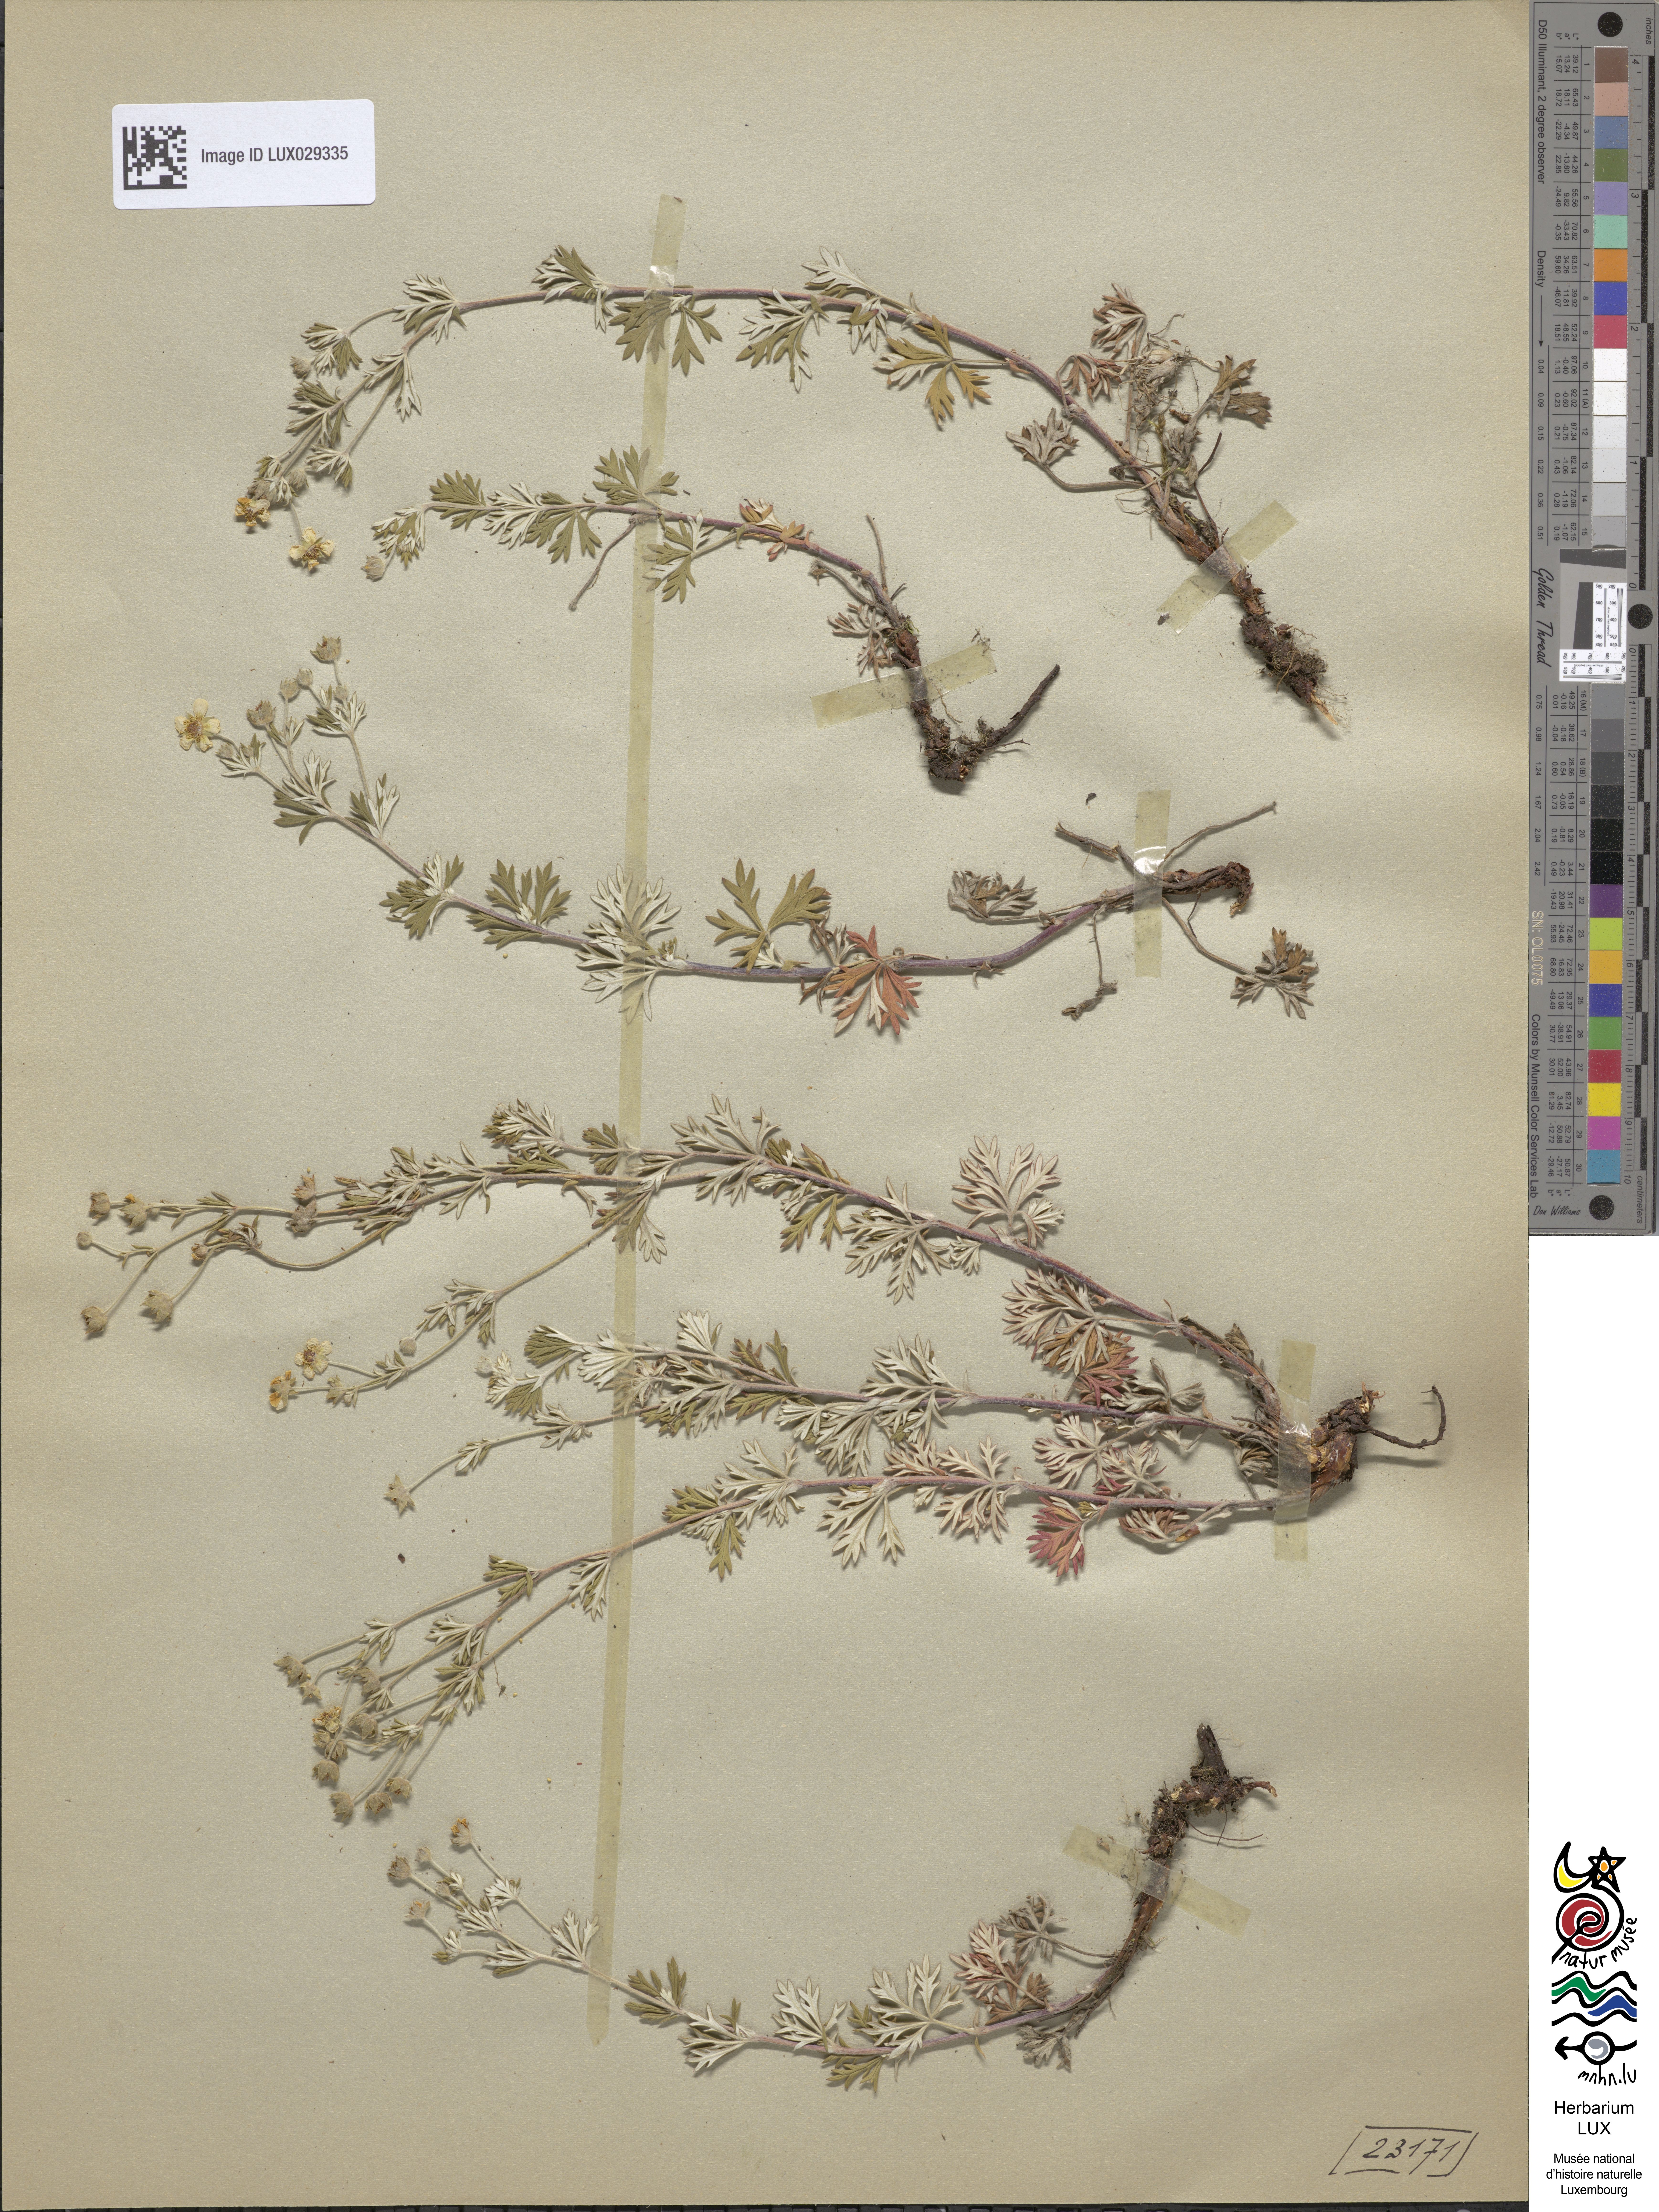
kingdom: Plantae
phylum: Tracheophyta
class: Magnoliopsida
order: Rosales
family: Rosaceae
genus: Potentilla
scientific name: Potentilla argentea
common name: Hoary cinquefoil
